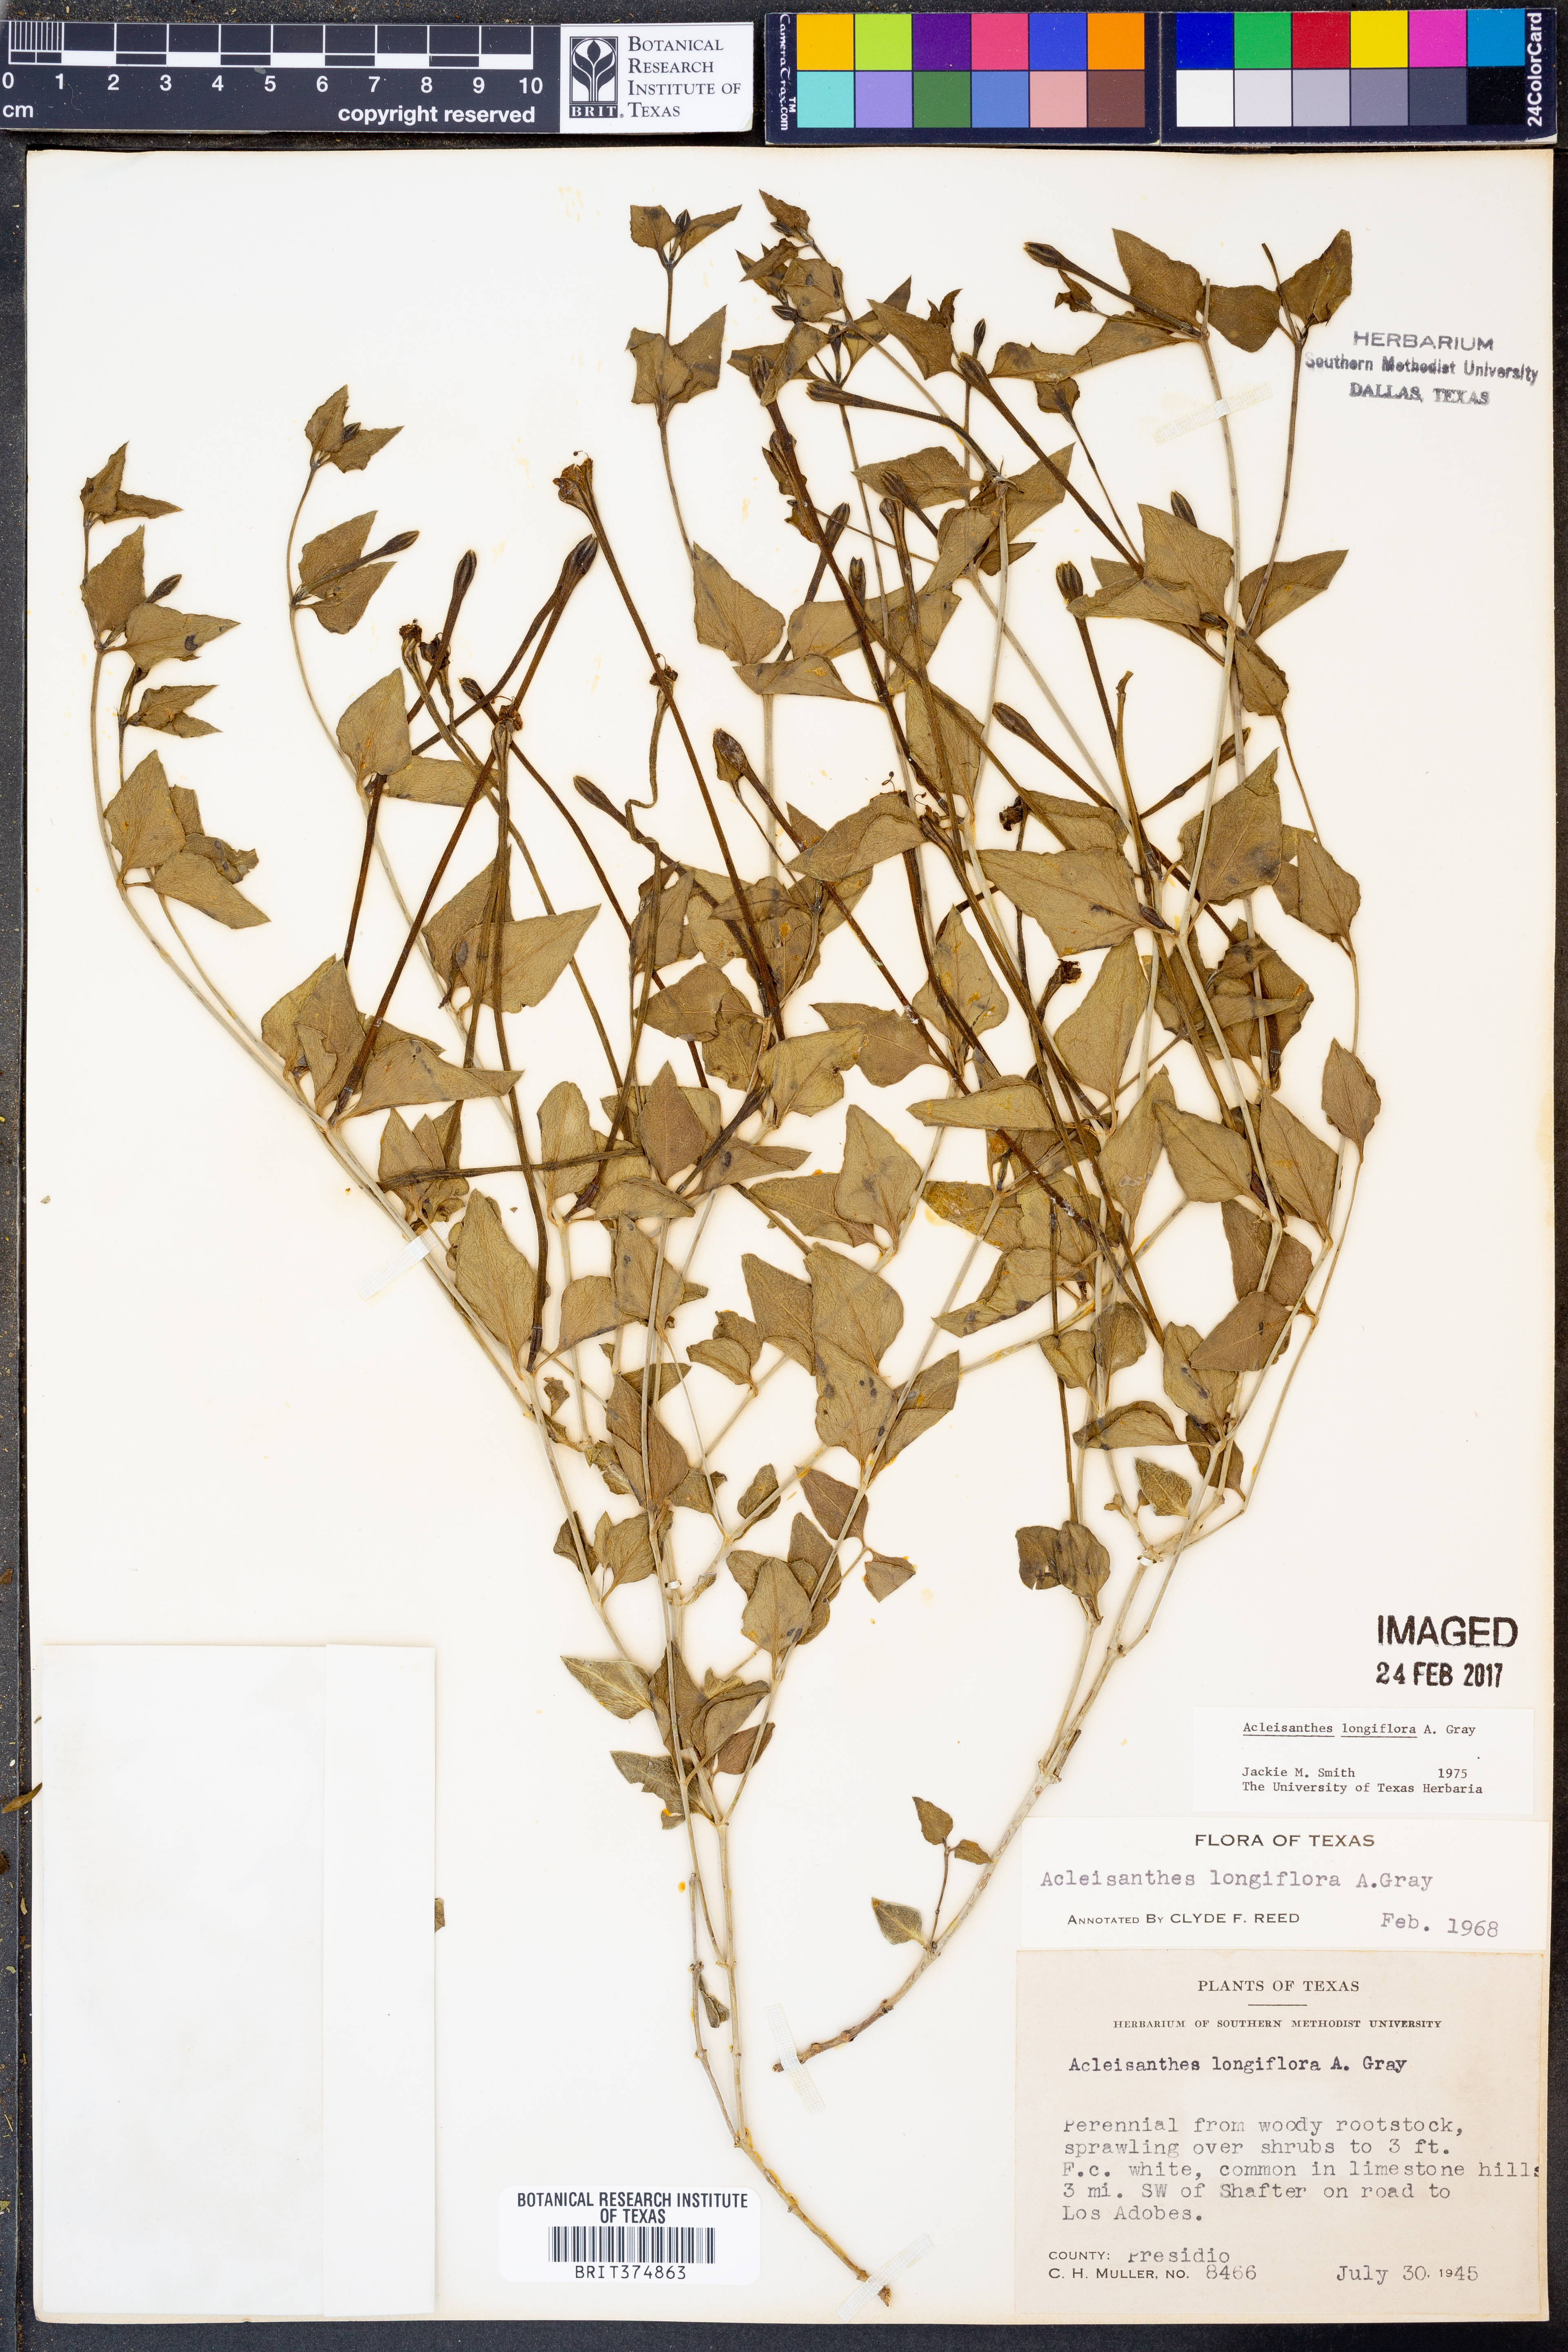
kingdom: Plantae
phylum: Tracheophyta
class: Magnoliopsida
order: Caryophyllales
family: Nyctaginaceae
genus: Acleisanthes
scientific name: Acleisanthes longiflora
